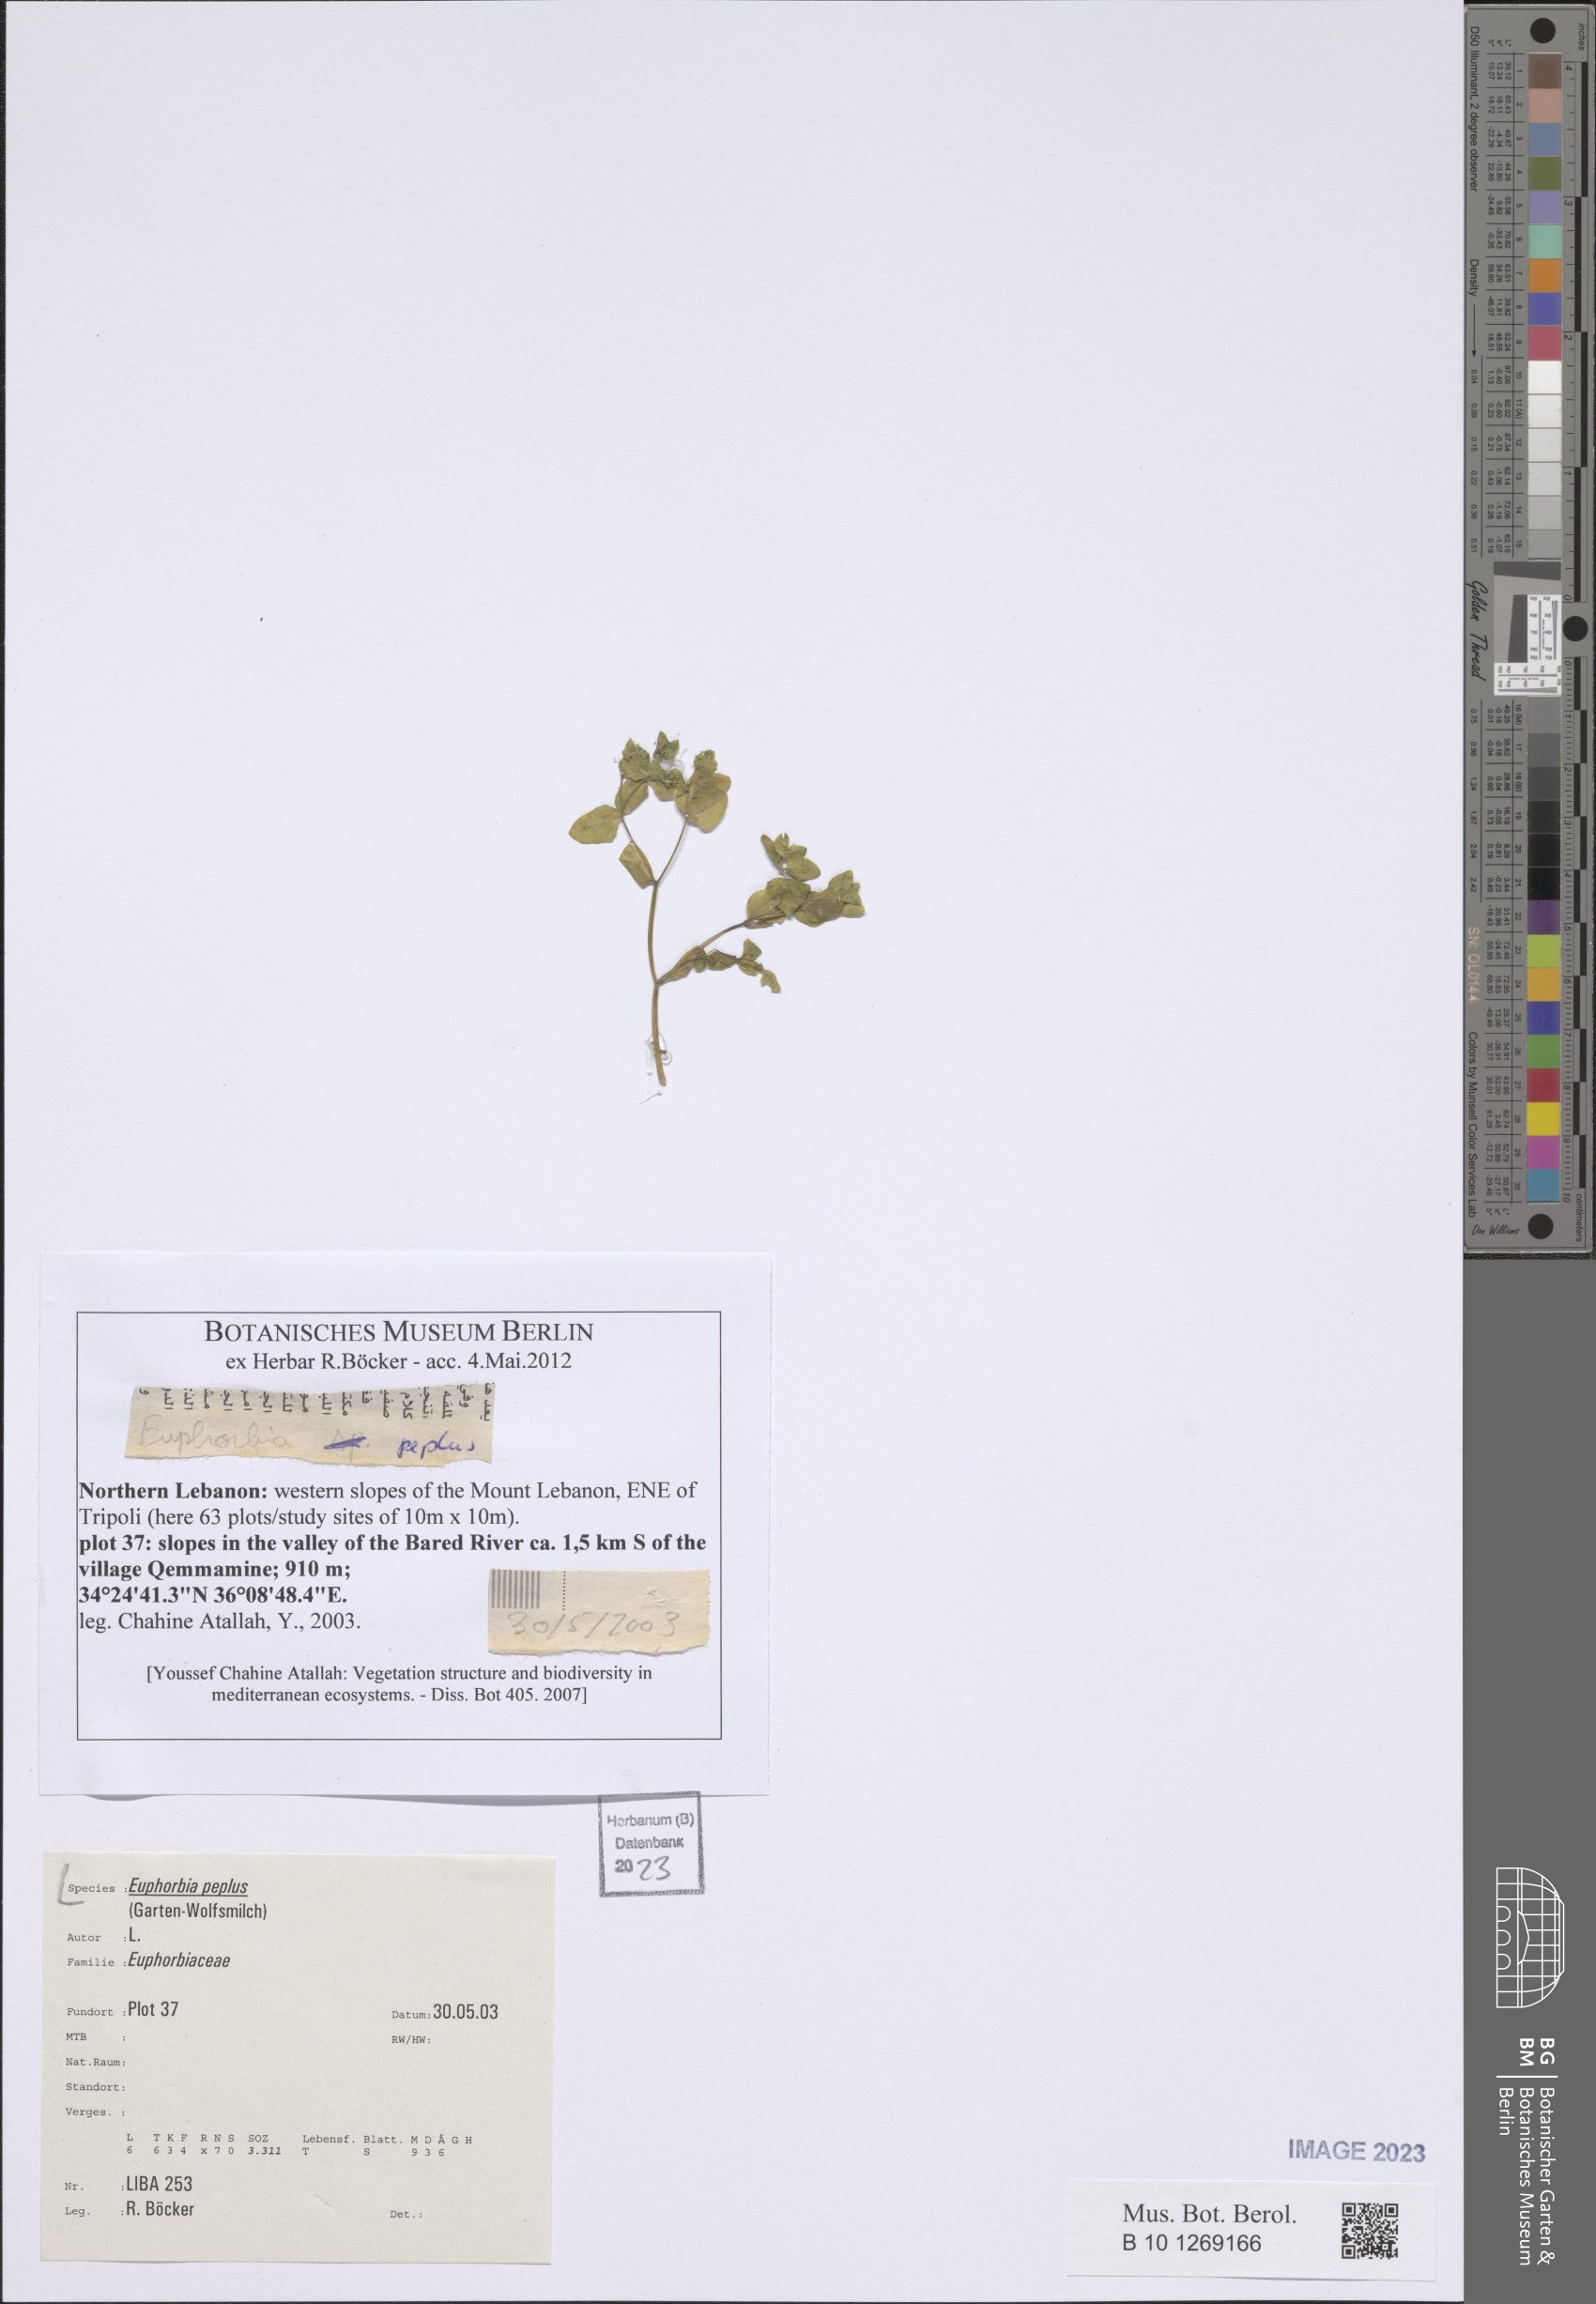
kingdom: Plantae
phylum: Tracheophyta
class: Magnoliopsida
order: Malpighiales
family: Euphorbiaceae
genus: Euphorbia
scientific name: Euphorbia peplus
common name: Petty spurge
